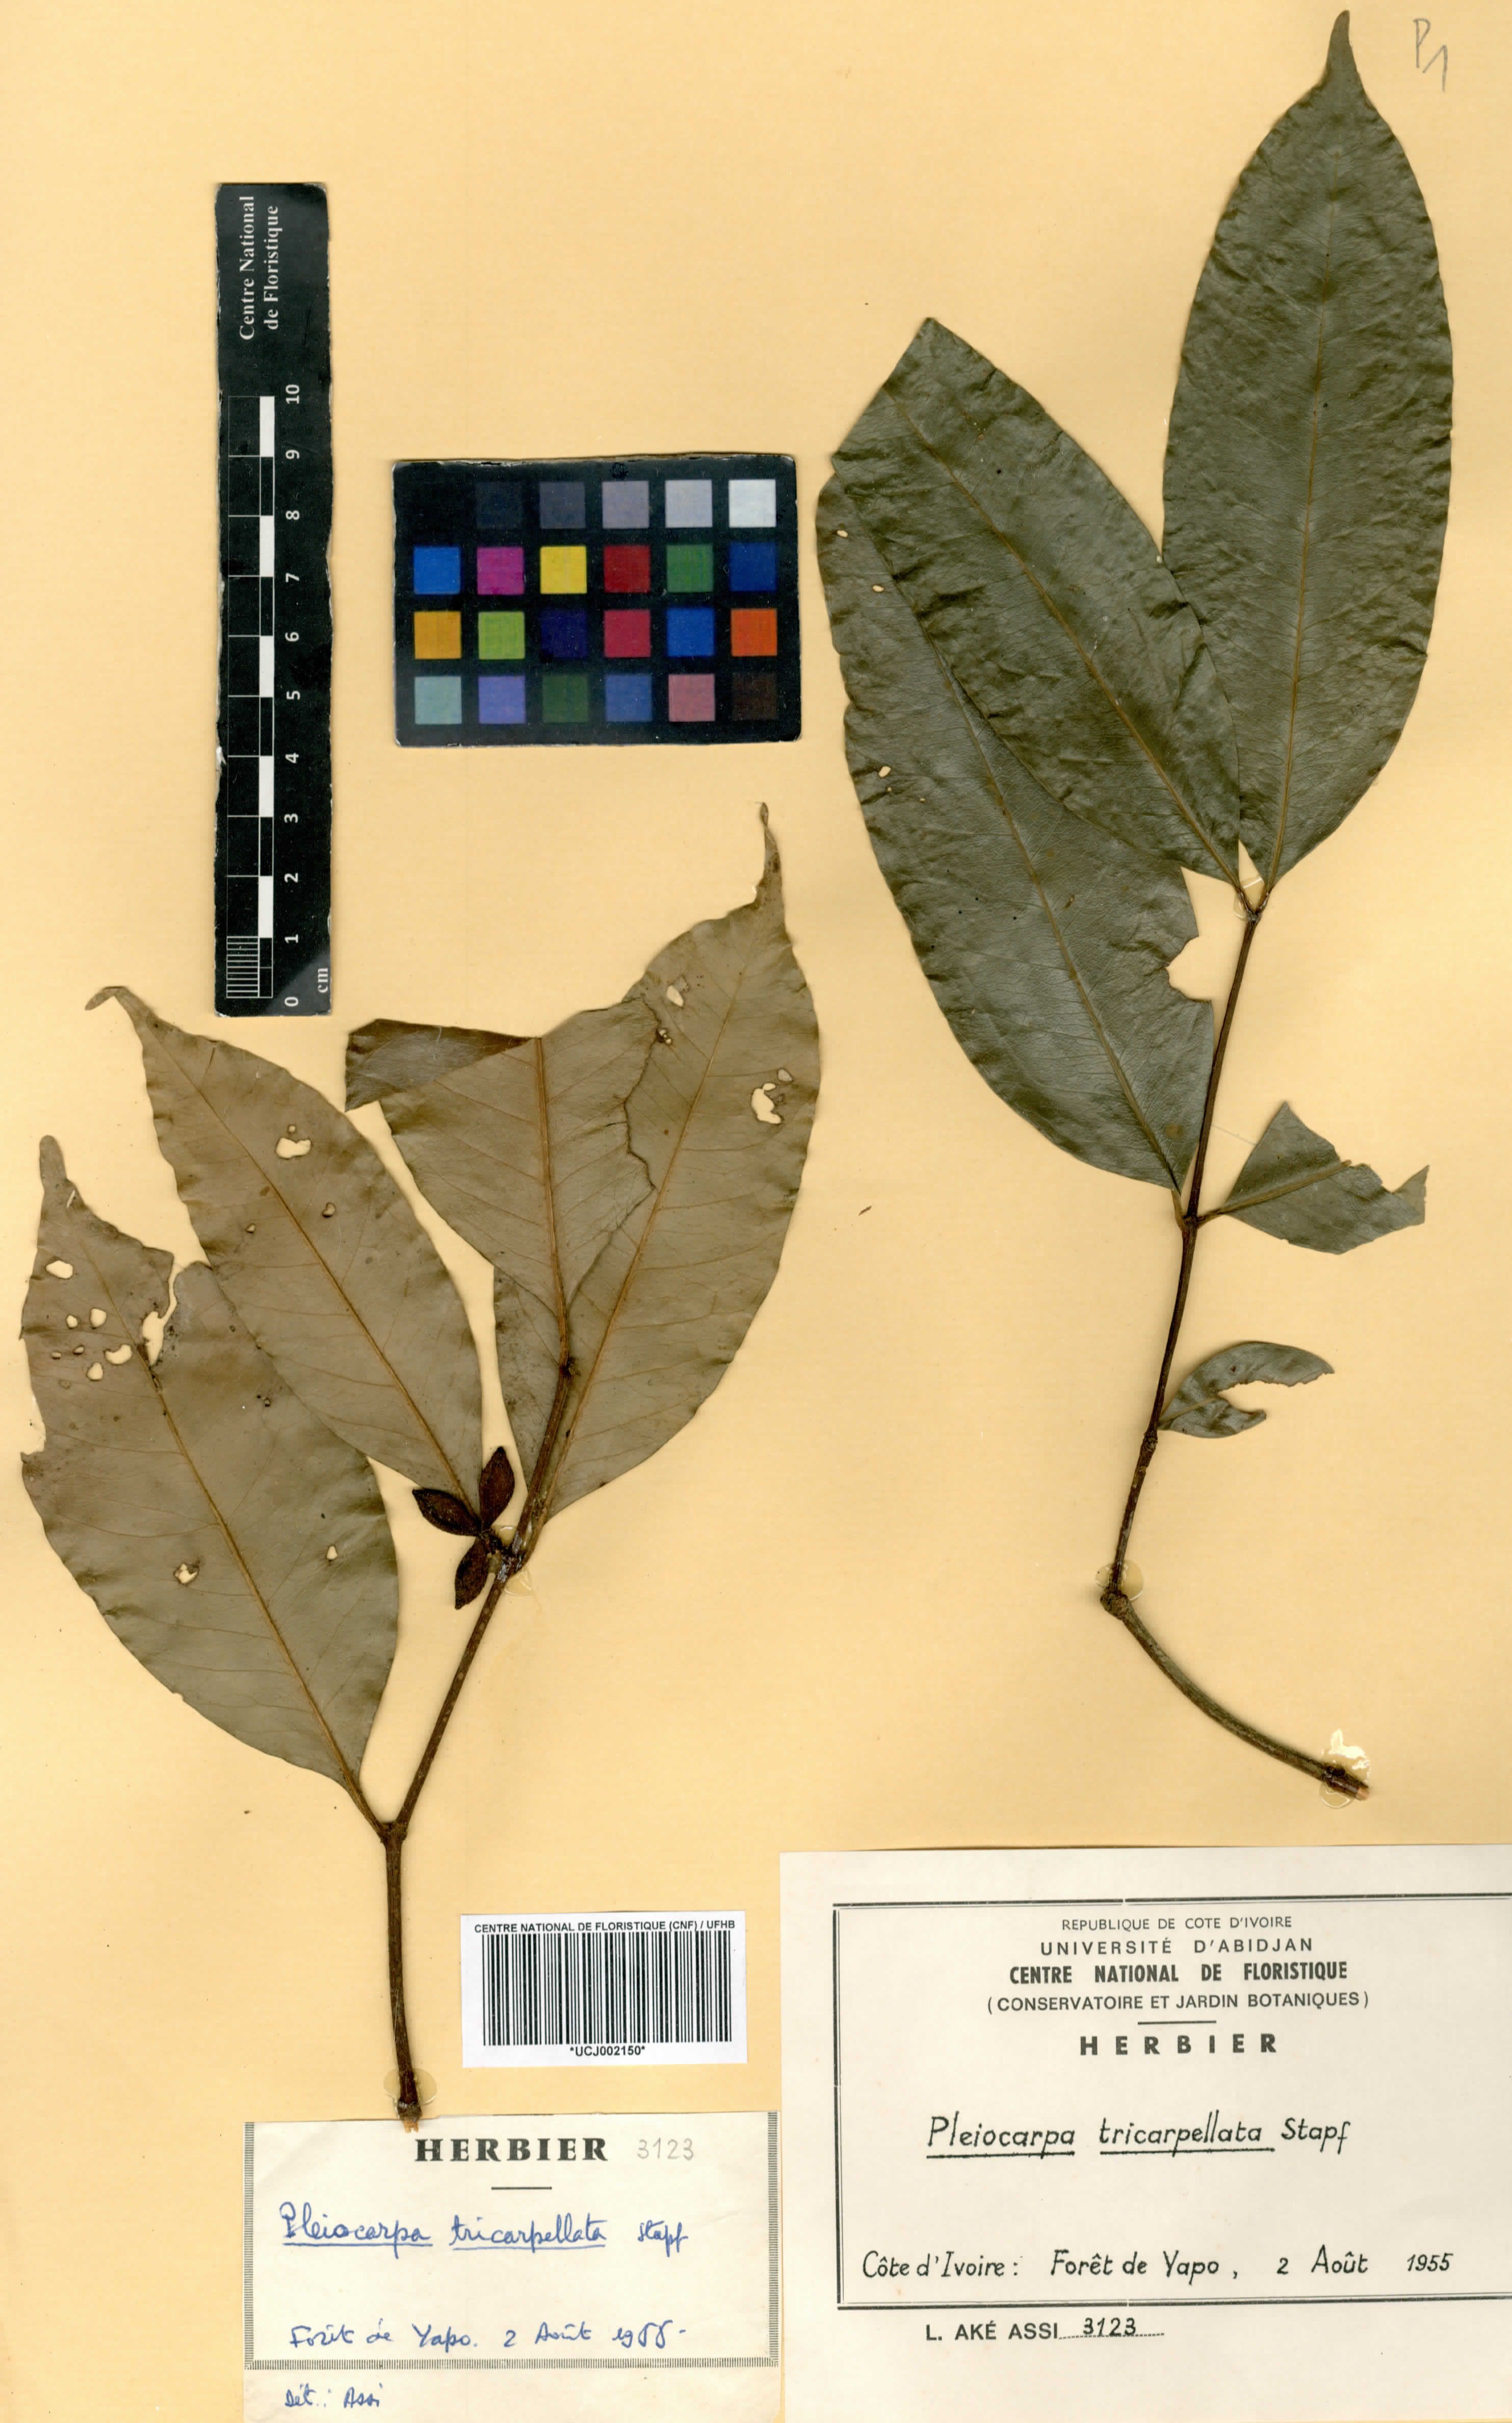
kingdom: Plantae
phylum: Tracheophyta
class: Magnoliopsida
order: Gentianales
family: Apocynaceae
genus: Pleiocarpa
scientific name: Pleiocarpa mutica
